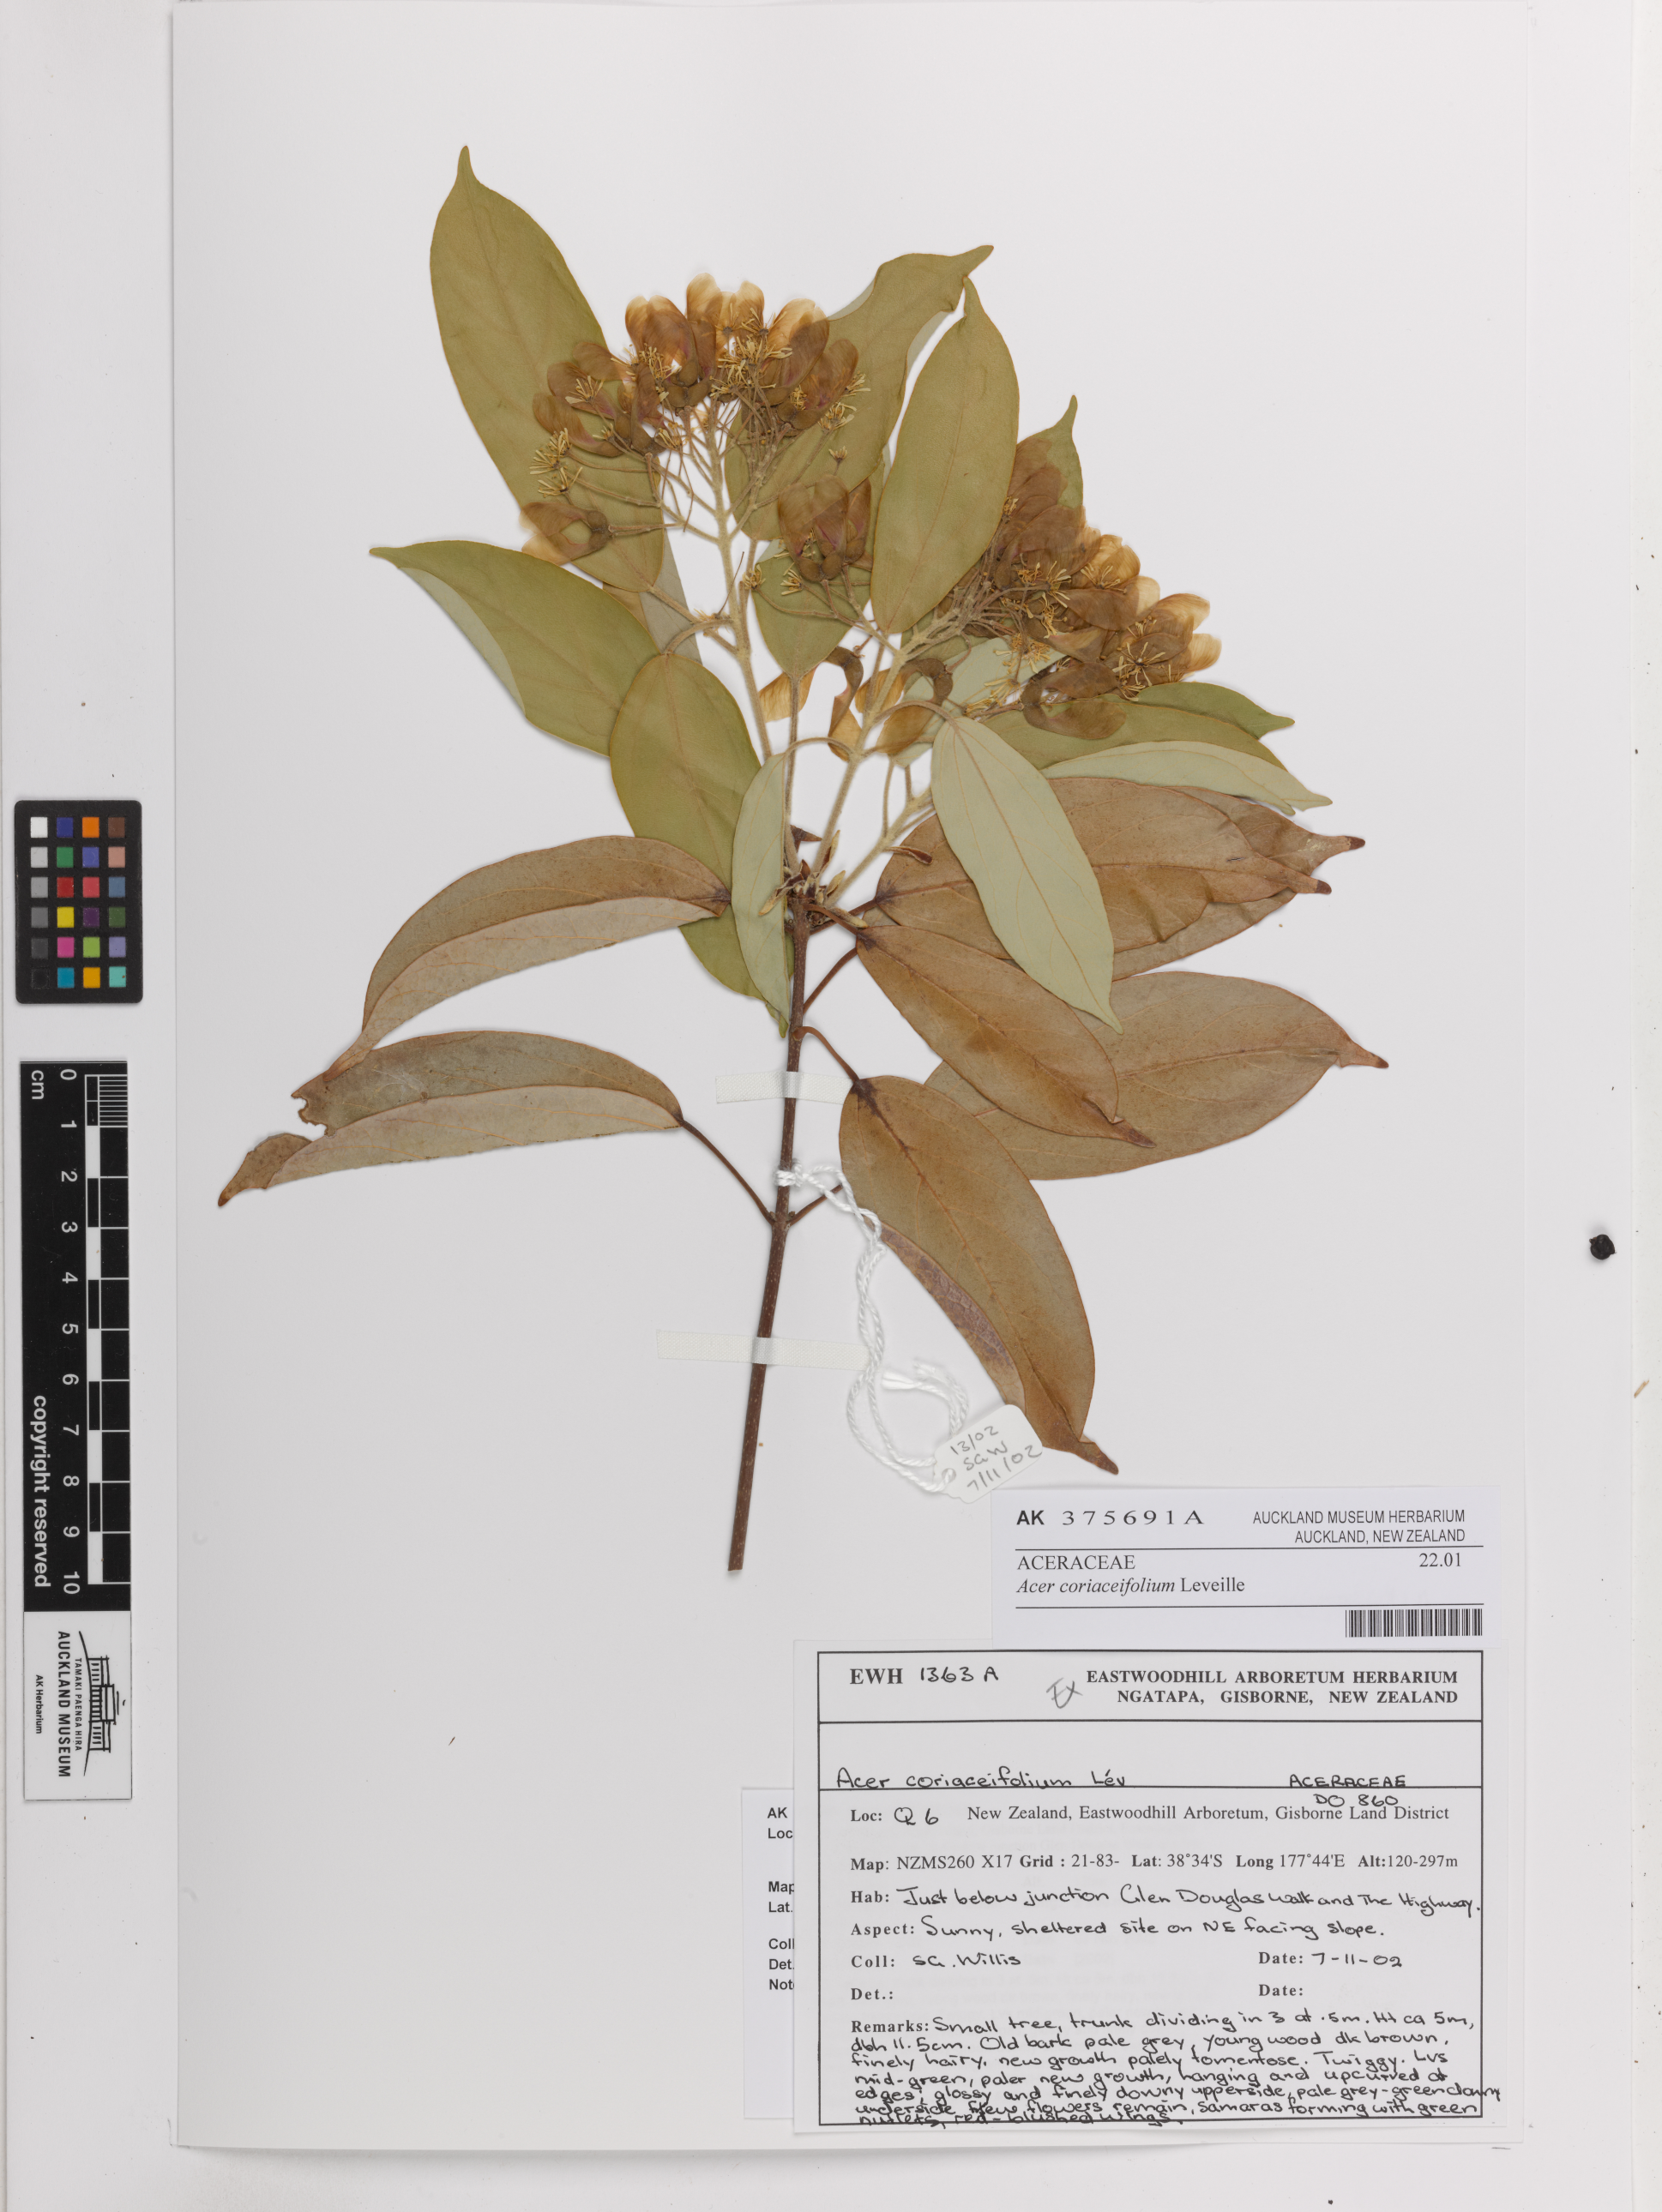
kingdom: Plantae
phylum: Tracheophyta
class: Magnoliopsida
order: Sapindales
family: Sapindaceae
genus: Acer
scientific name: Acer coriaceifolium
